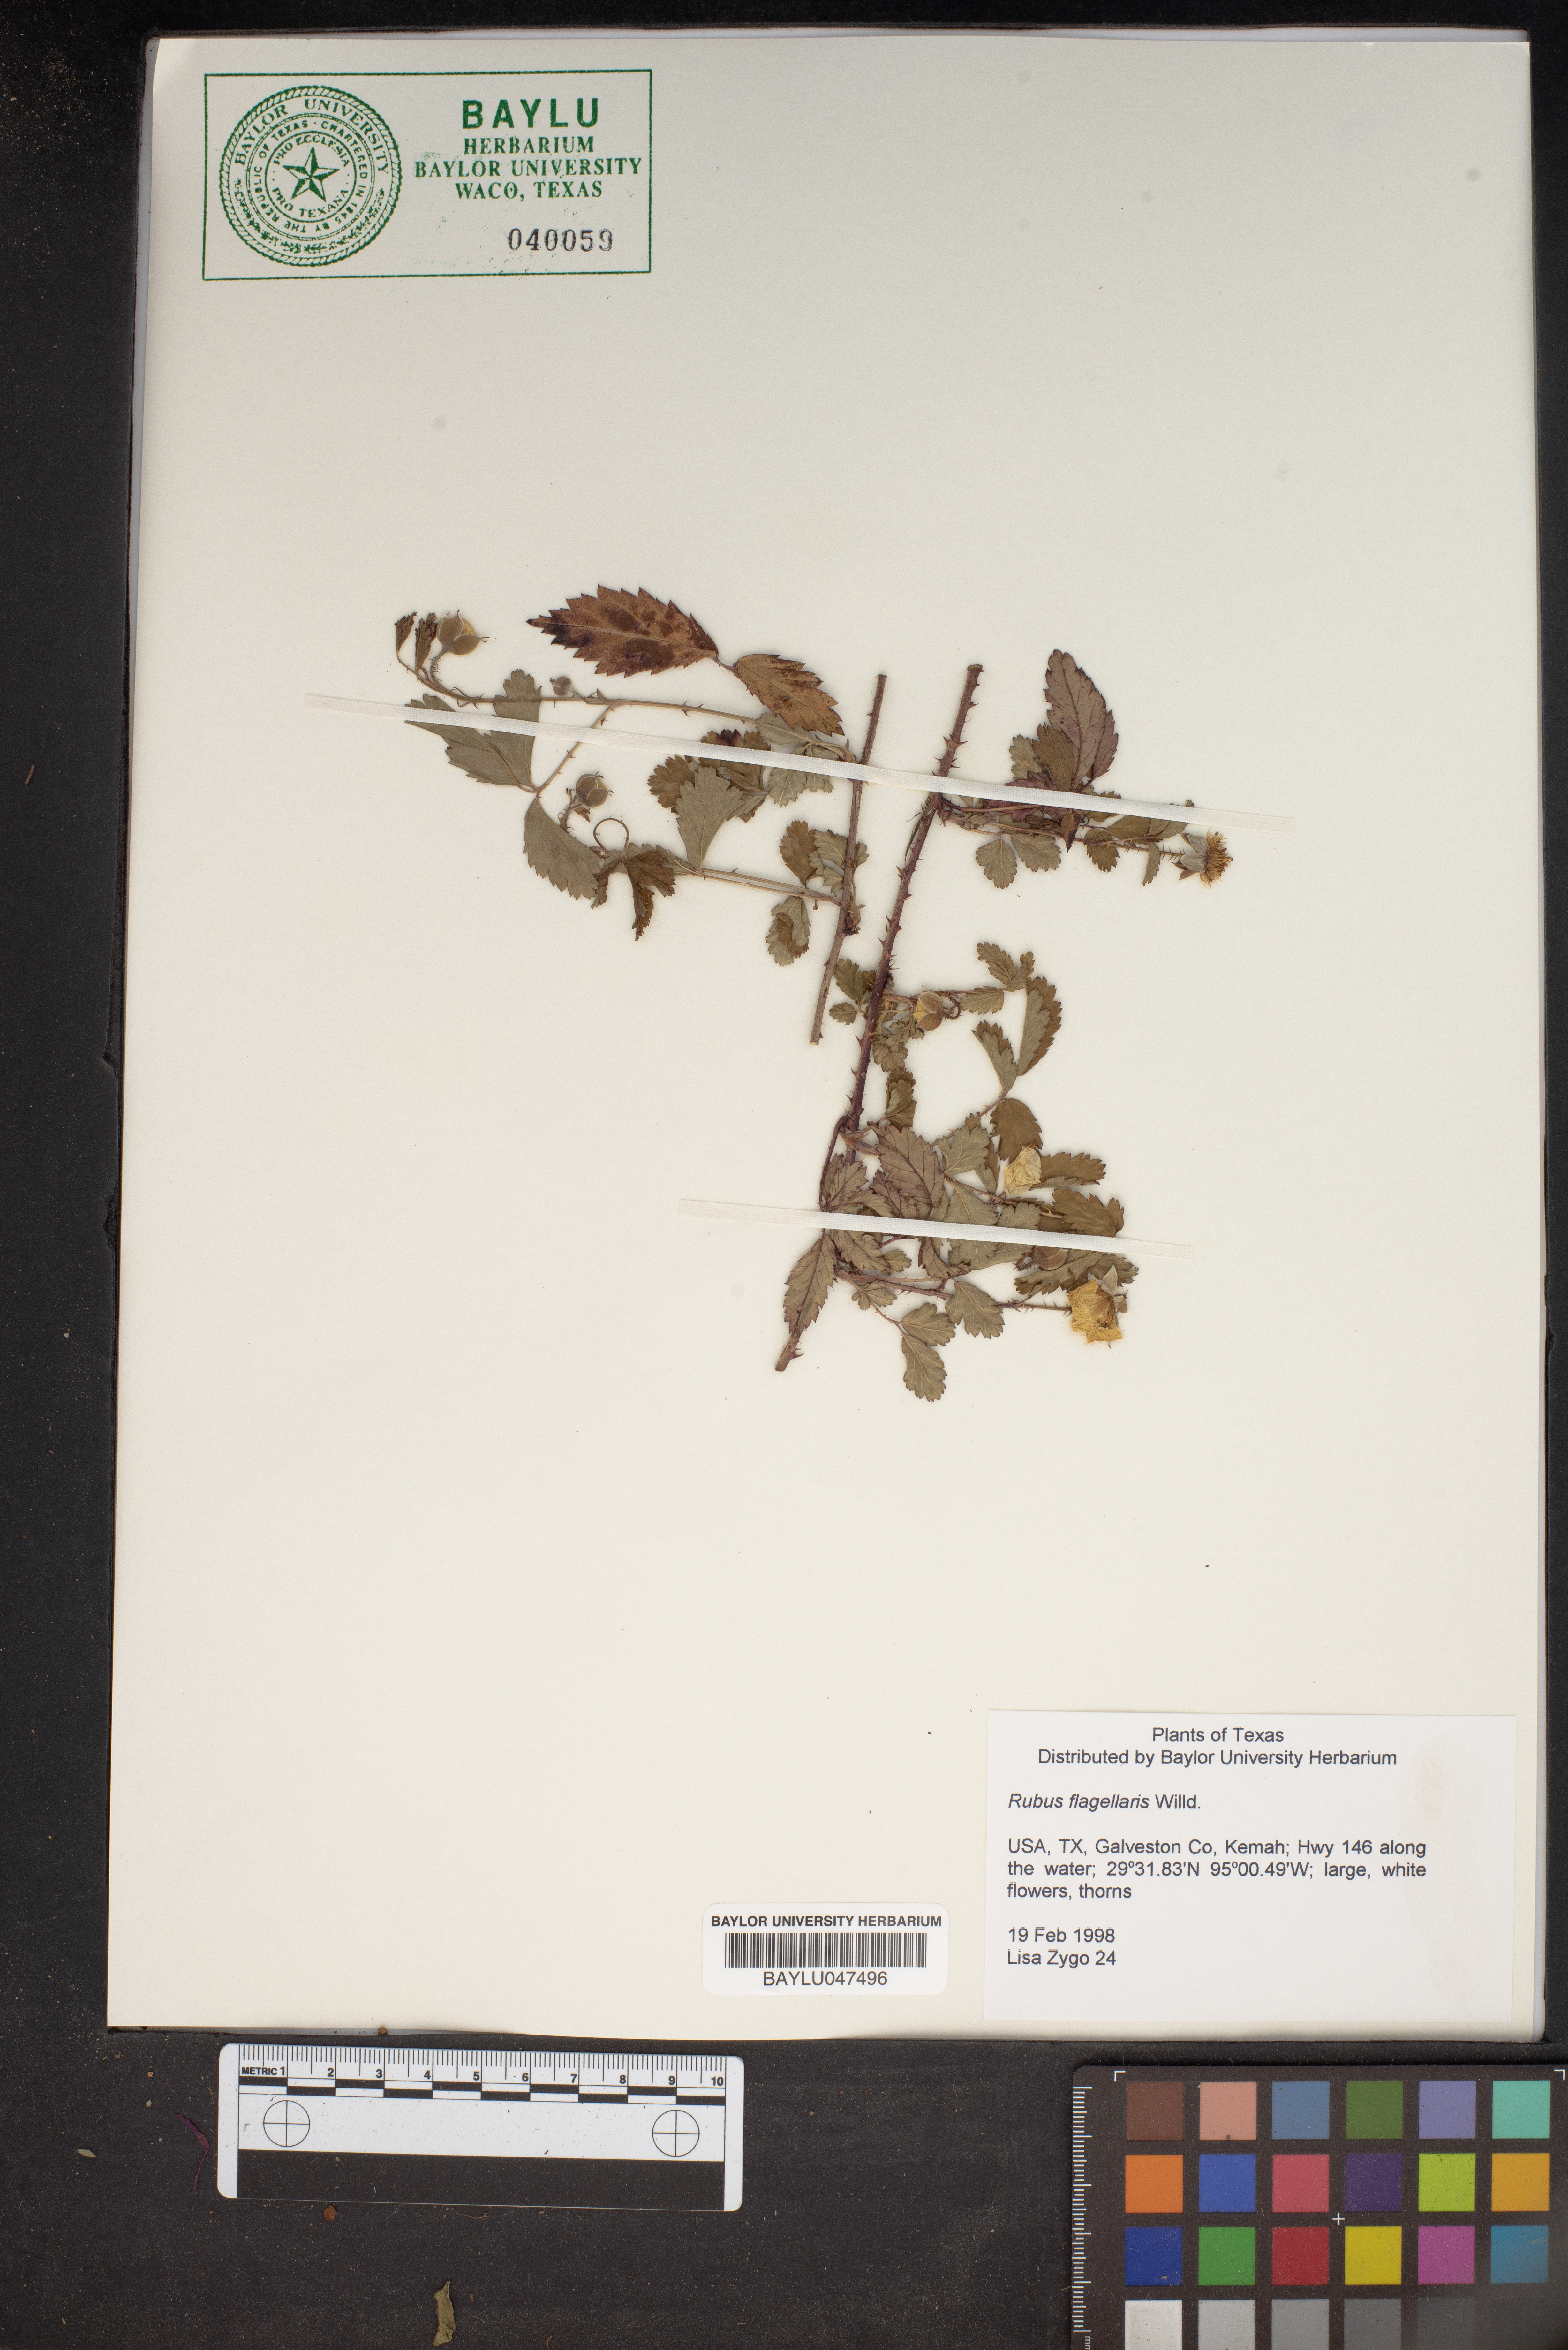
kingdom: Plantae
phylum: Tracheophyta
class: Magnoliopsida
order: Rosales
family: Rosaceae
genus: Rubus
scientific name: Rubus flagellaris
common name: American dewberry
